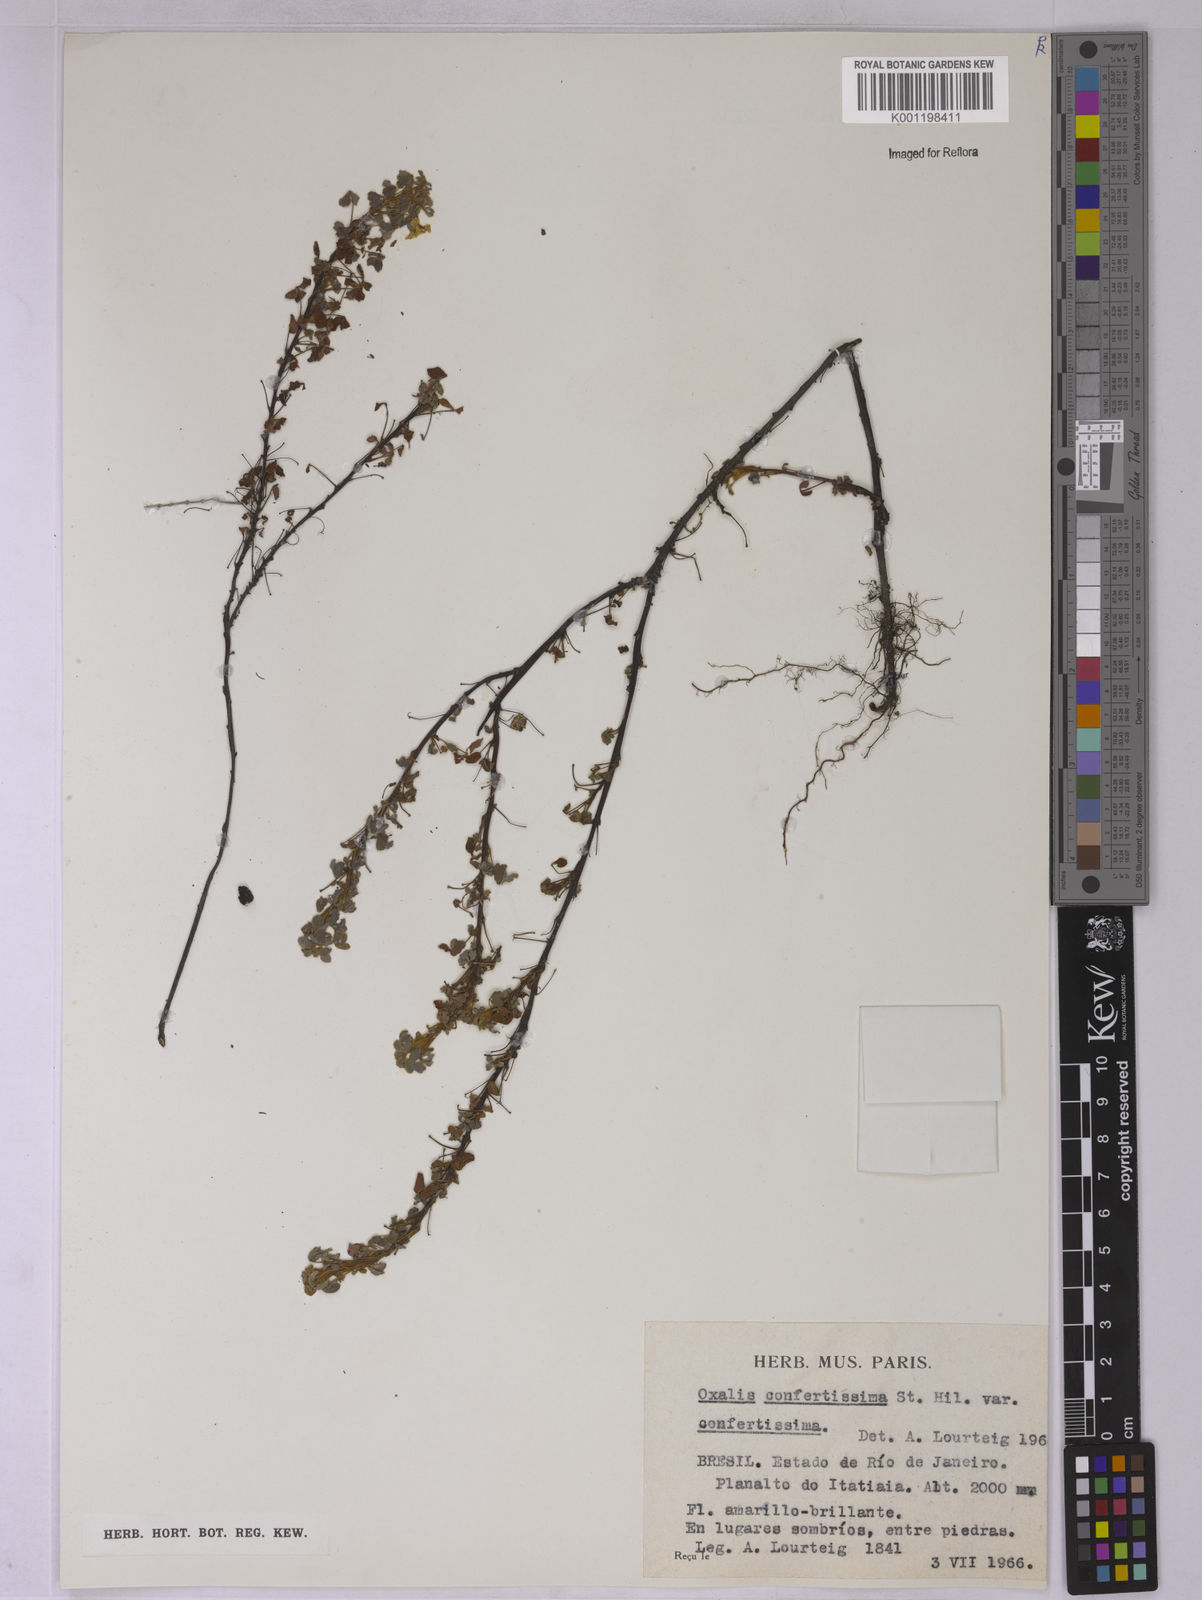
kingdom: Plantae
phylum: Tracheophyta
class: Magnoliopsida
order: Oxalidales
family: Oxalidaceae
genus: Oxalis
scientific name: Oxalis confertissima
